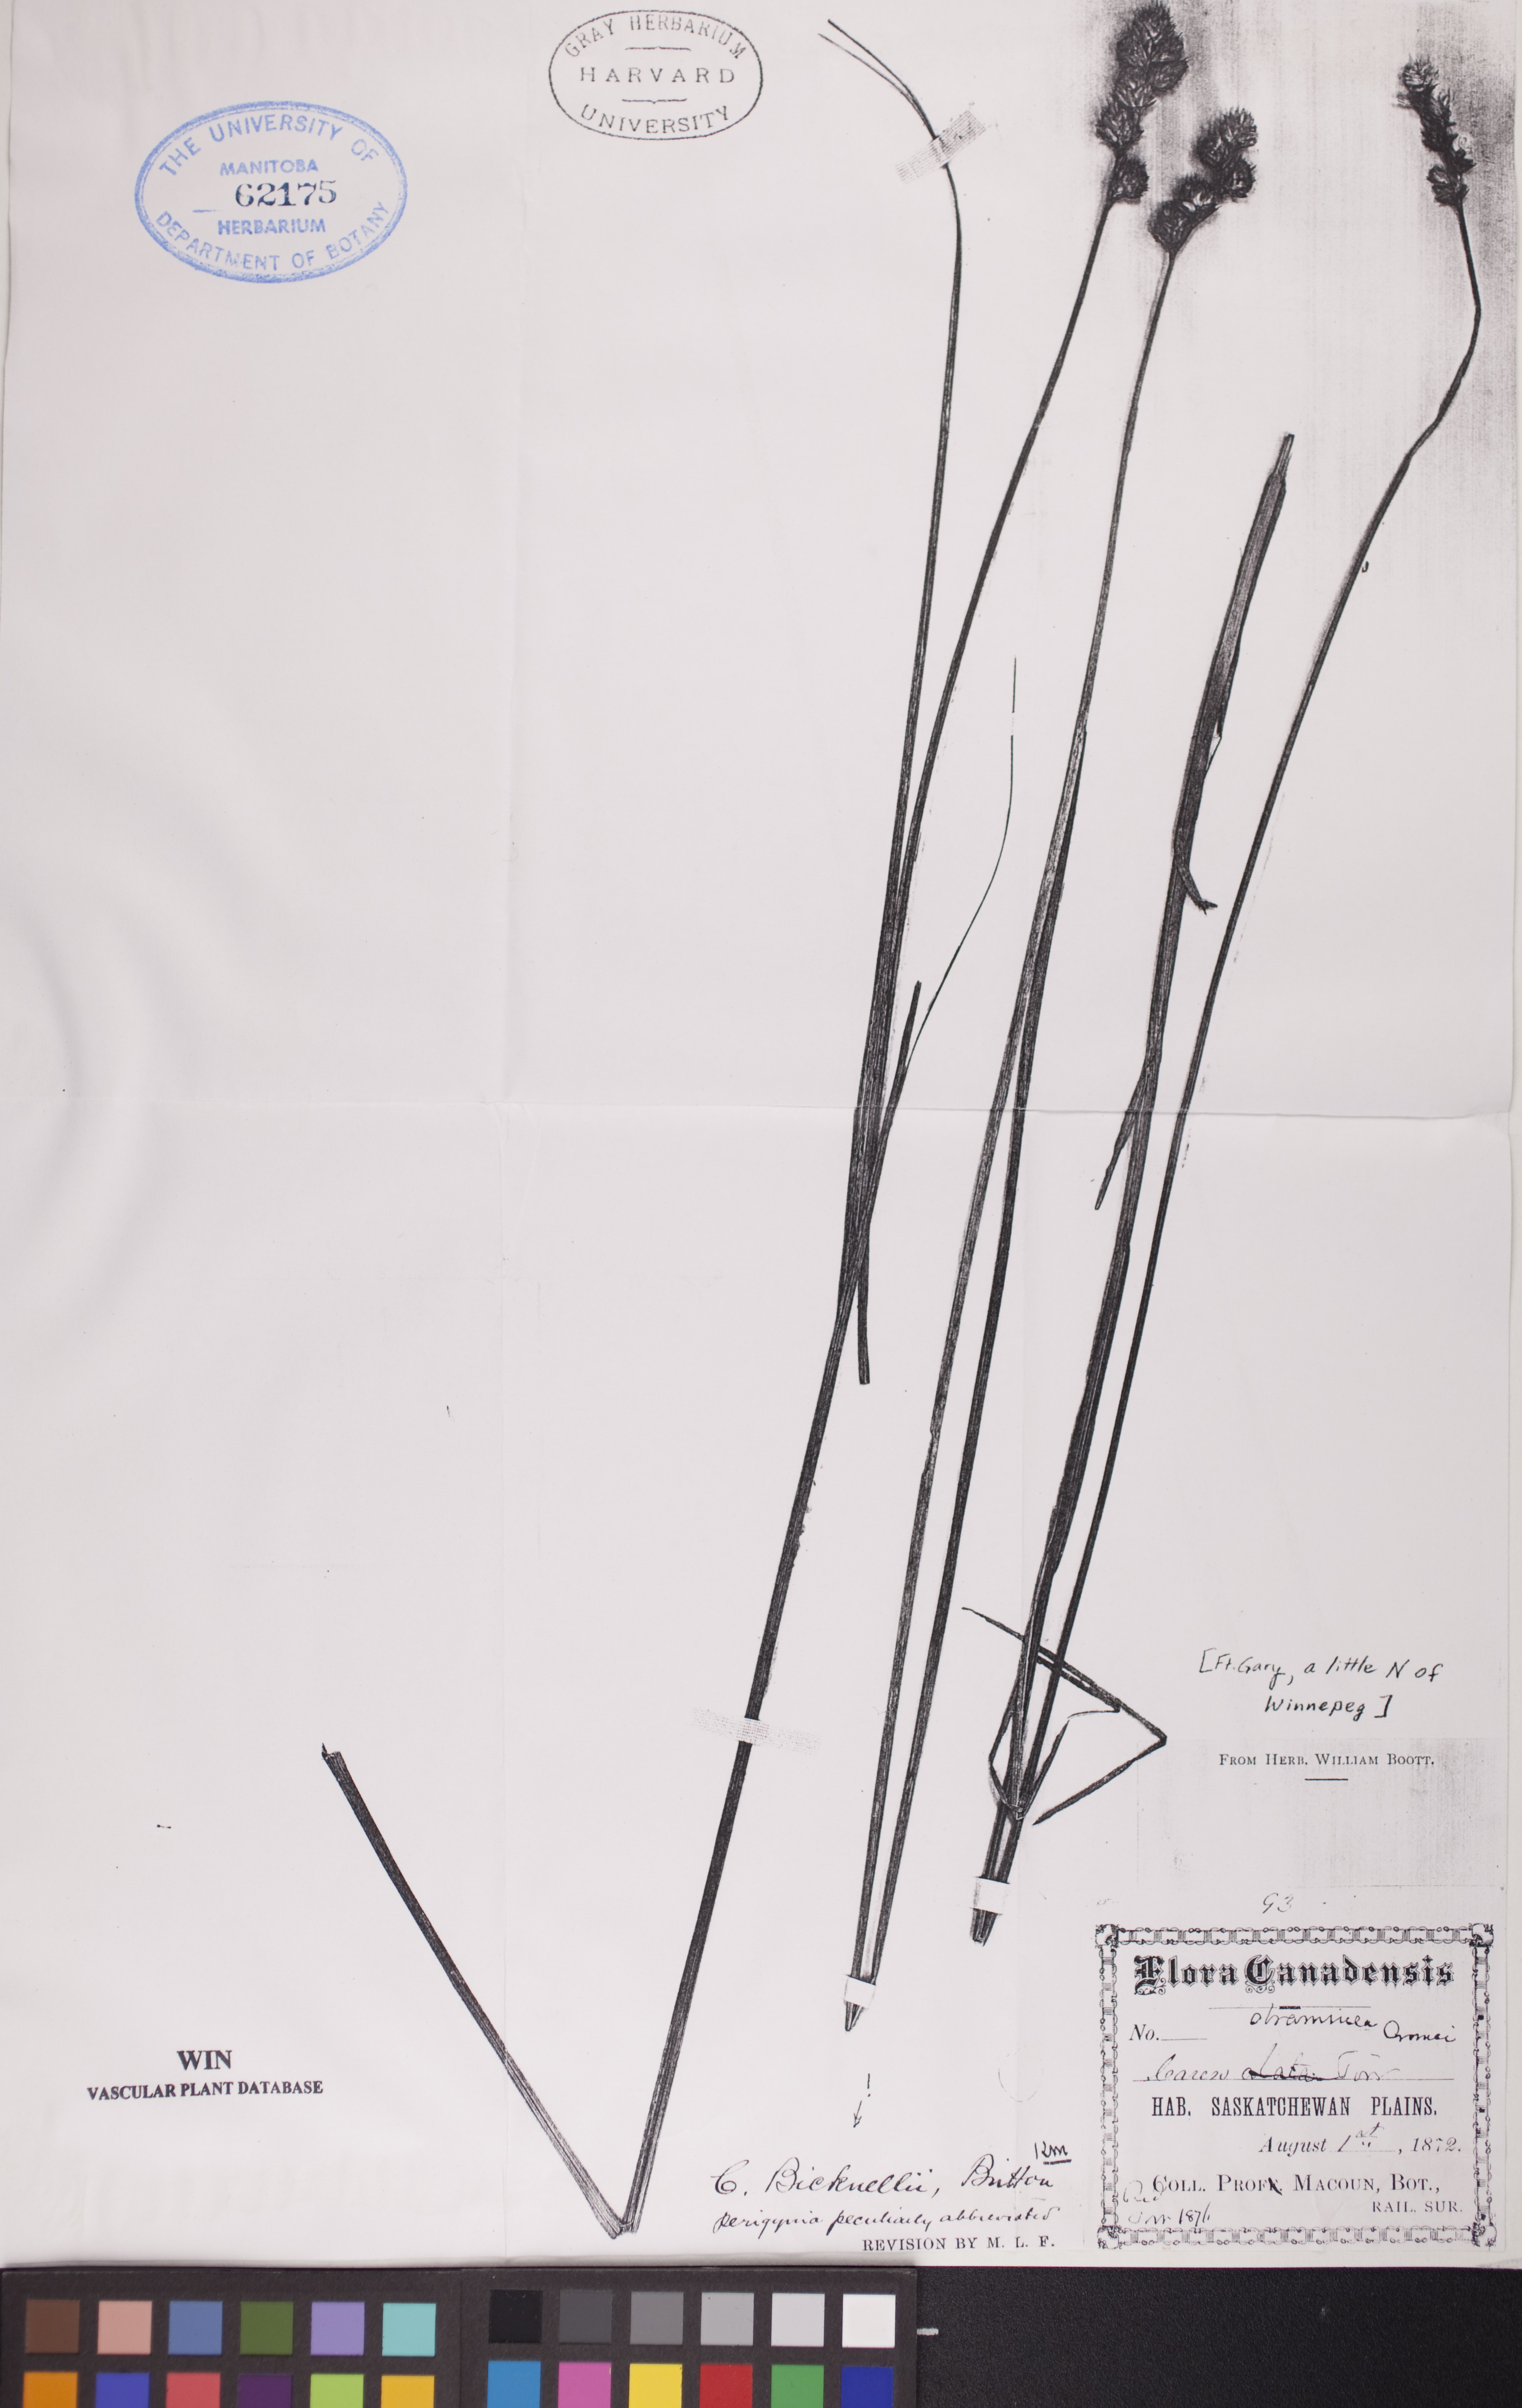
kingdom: Plantae
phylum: Tracheophyta
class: Liliopsida
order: Poales
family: Cyperaceae
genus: Carex
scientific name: Carex bicknellii
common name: Bicknell's sedge
